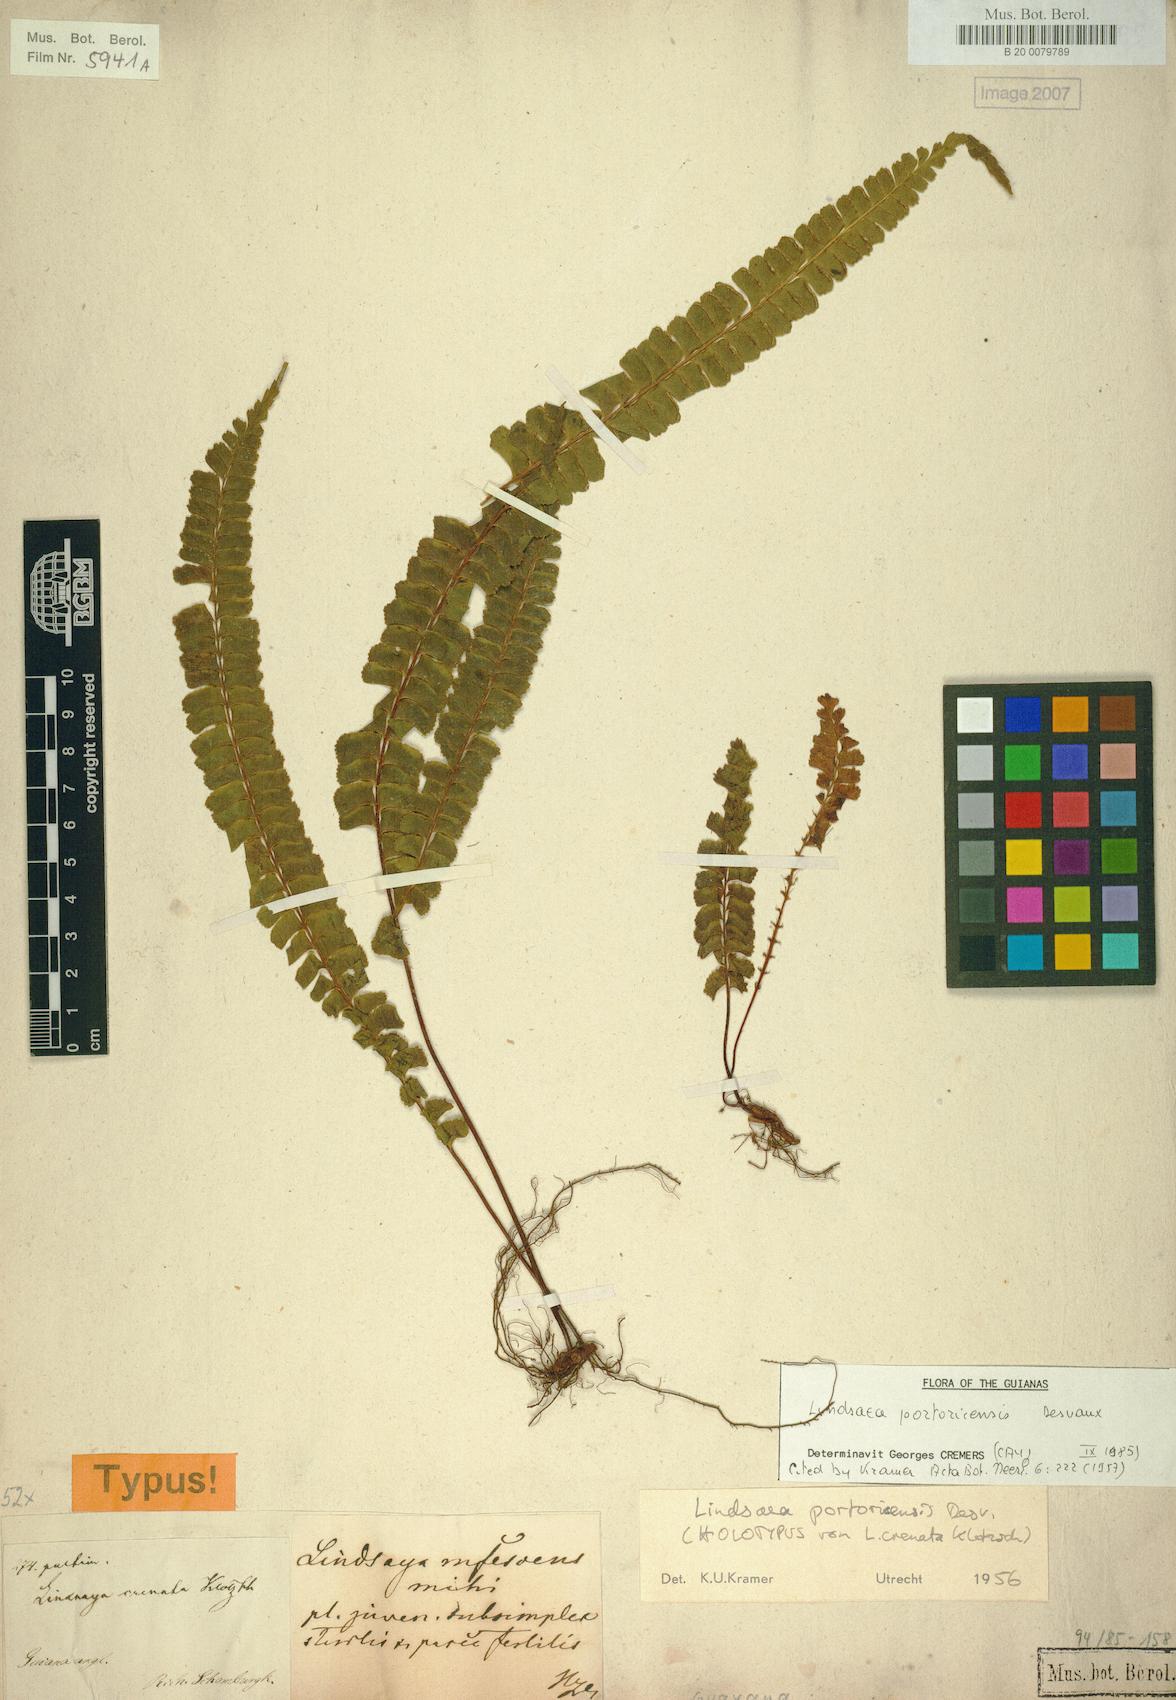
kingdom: Plantae
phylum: Tracheophyta
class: Polypodiopsida
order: Polypodiales
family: Lindsaeaceae
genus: Lindsaea
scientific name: Lindsaea portoricensis
